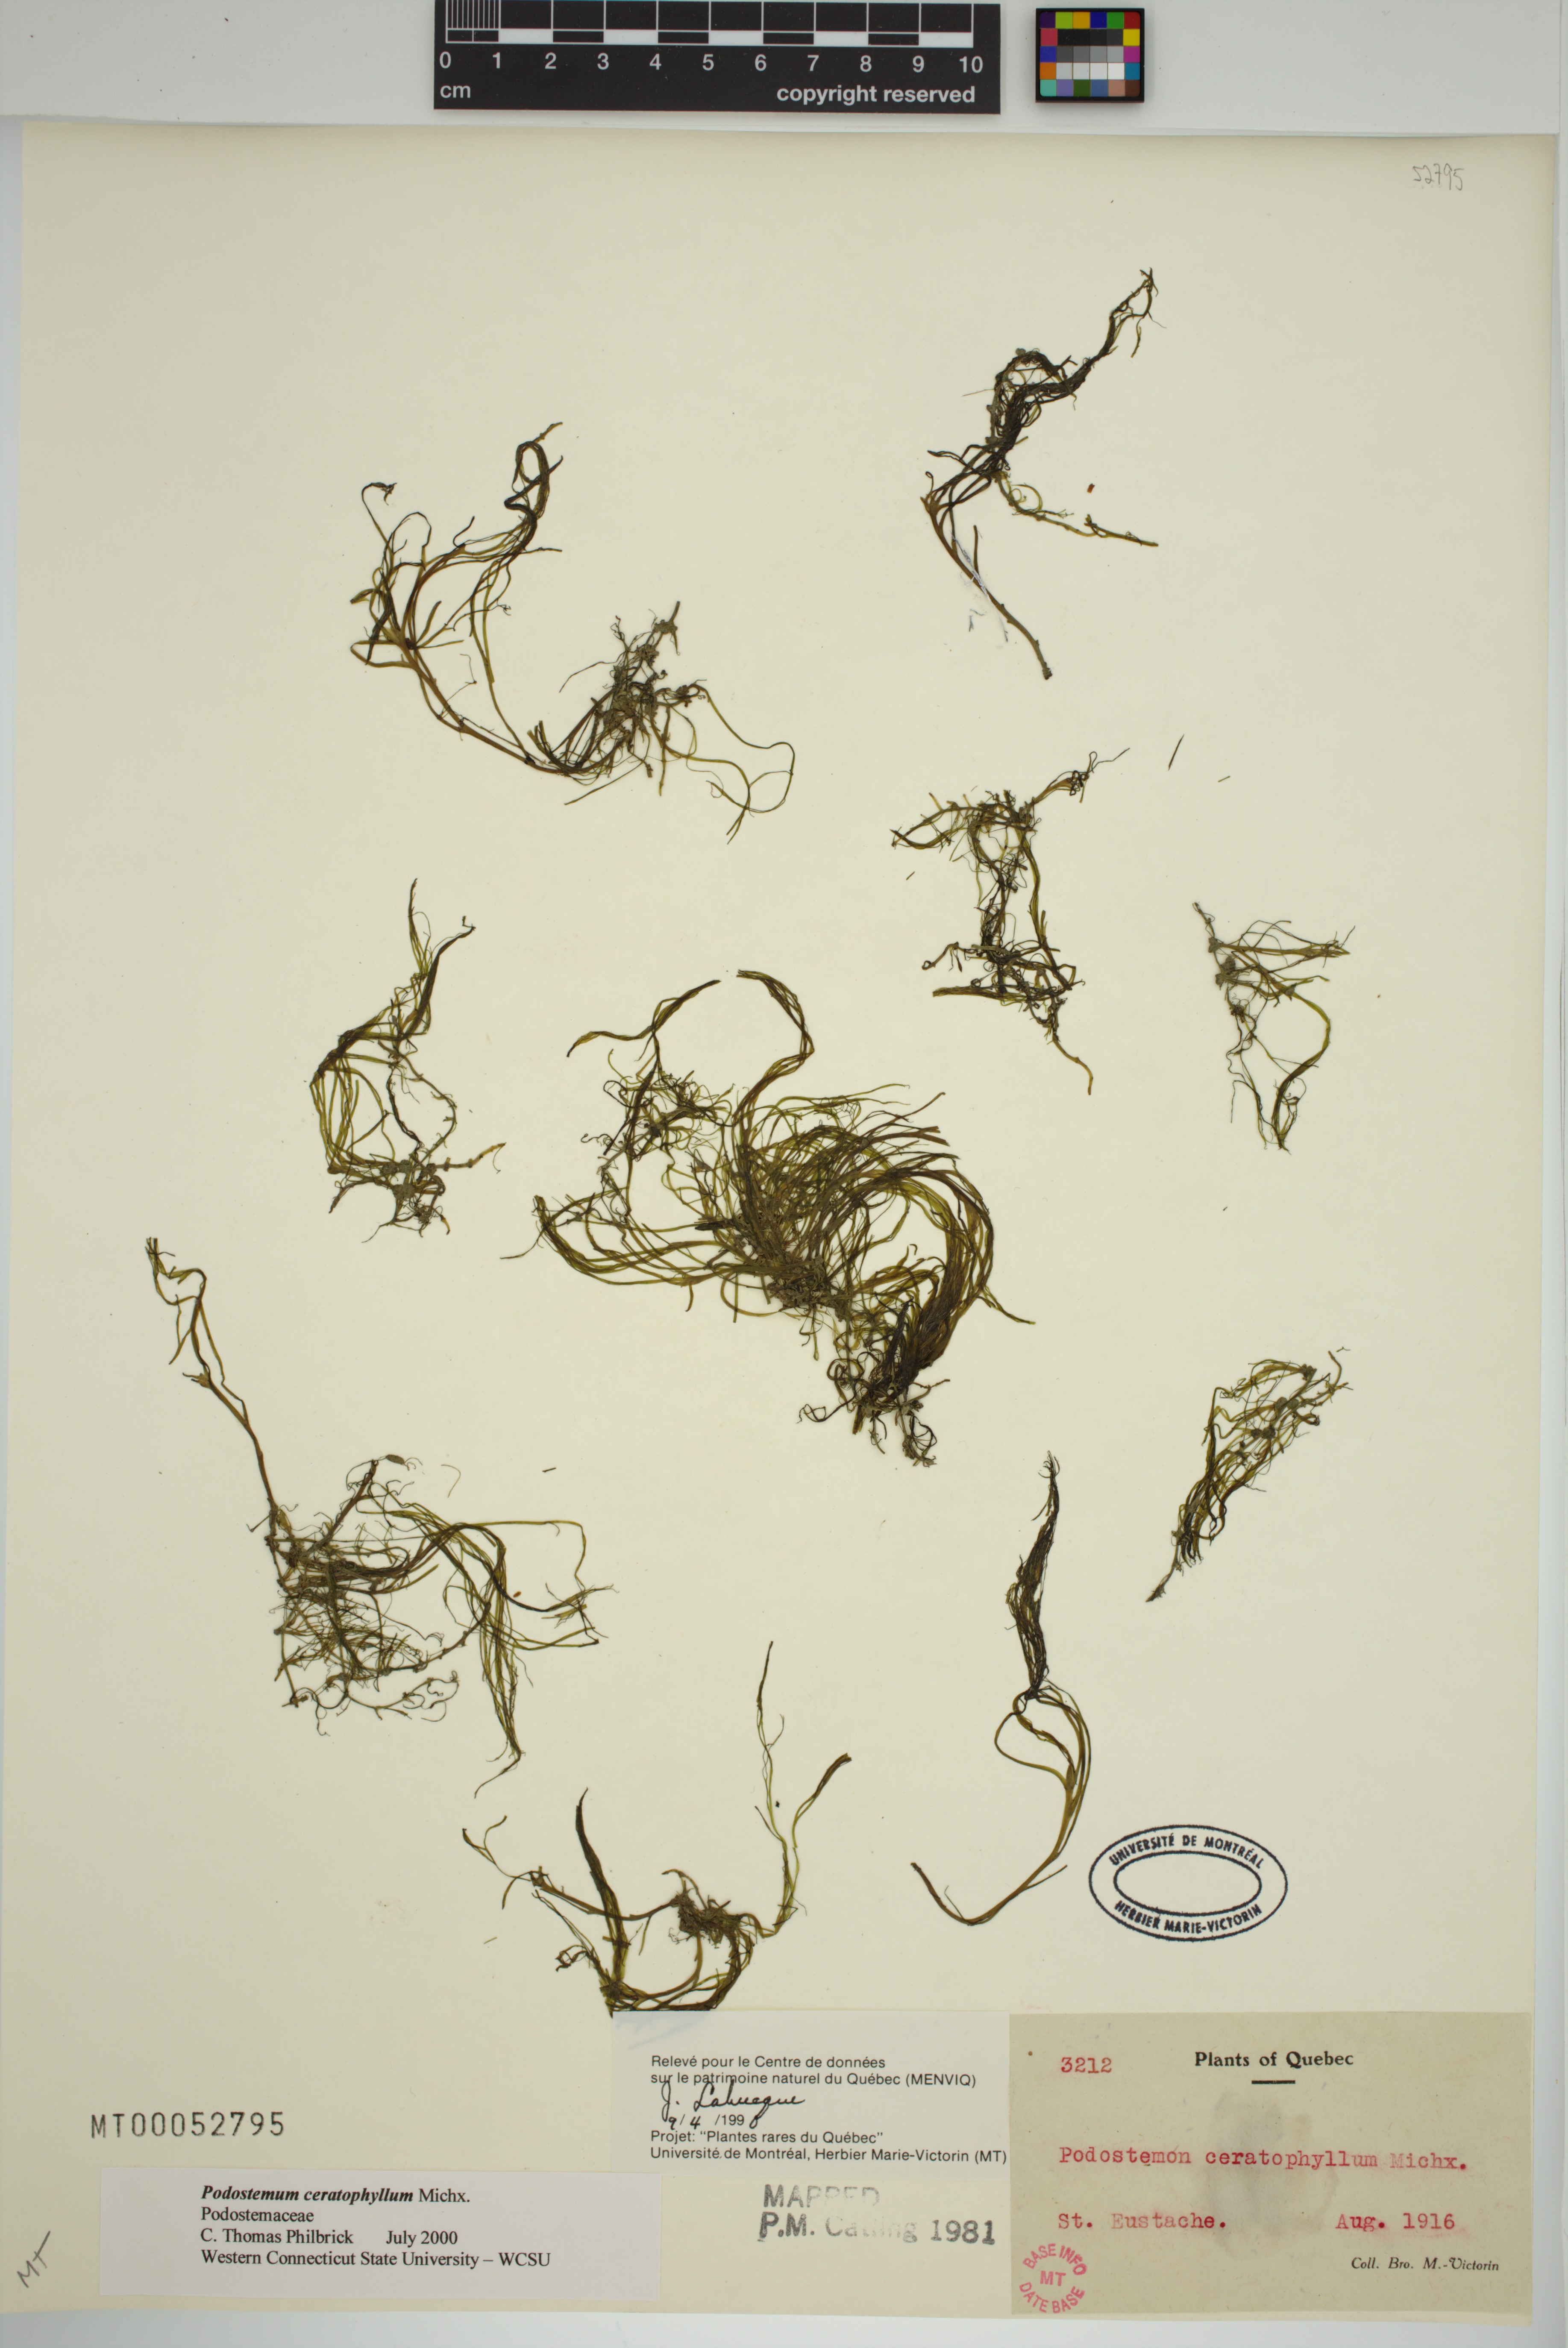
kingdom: Plantae
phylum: Tracheophyta
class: Magnoliopsida
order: Malpighiales
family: Podostemaceae
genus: Podostemum
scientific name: Podostemum ceratophyllum
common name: Horn-leaved riverweed
